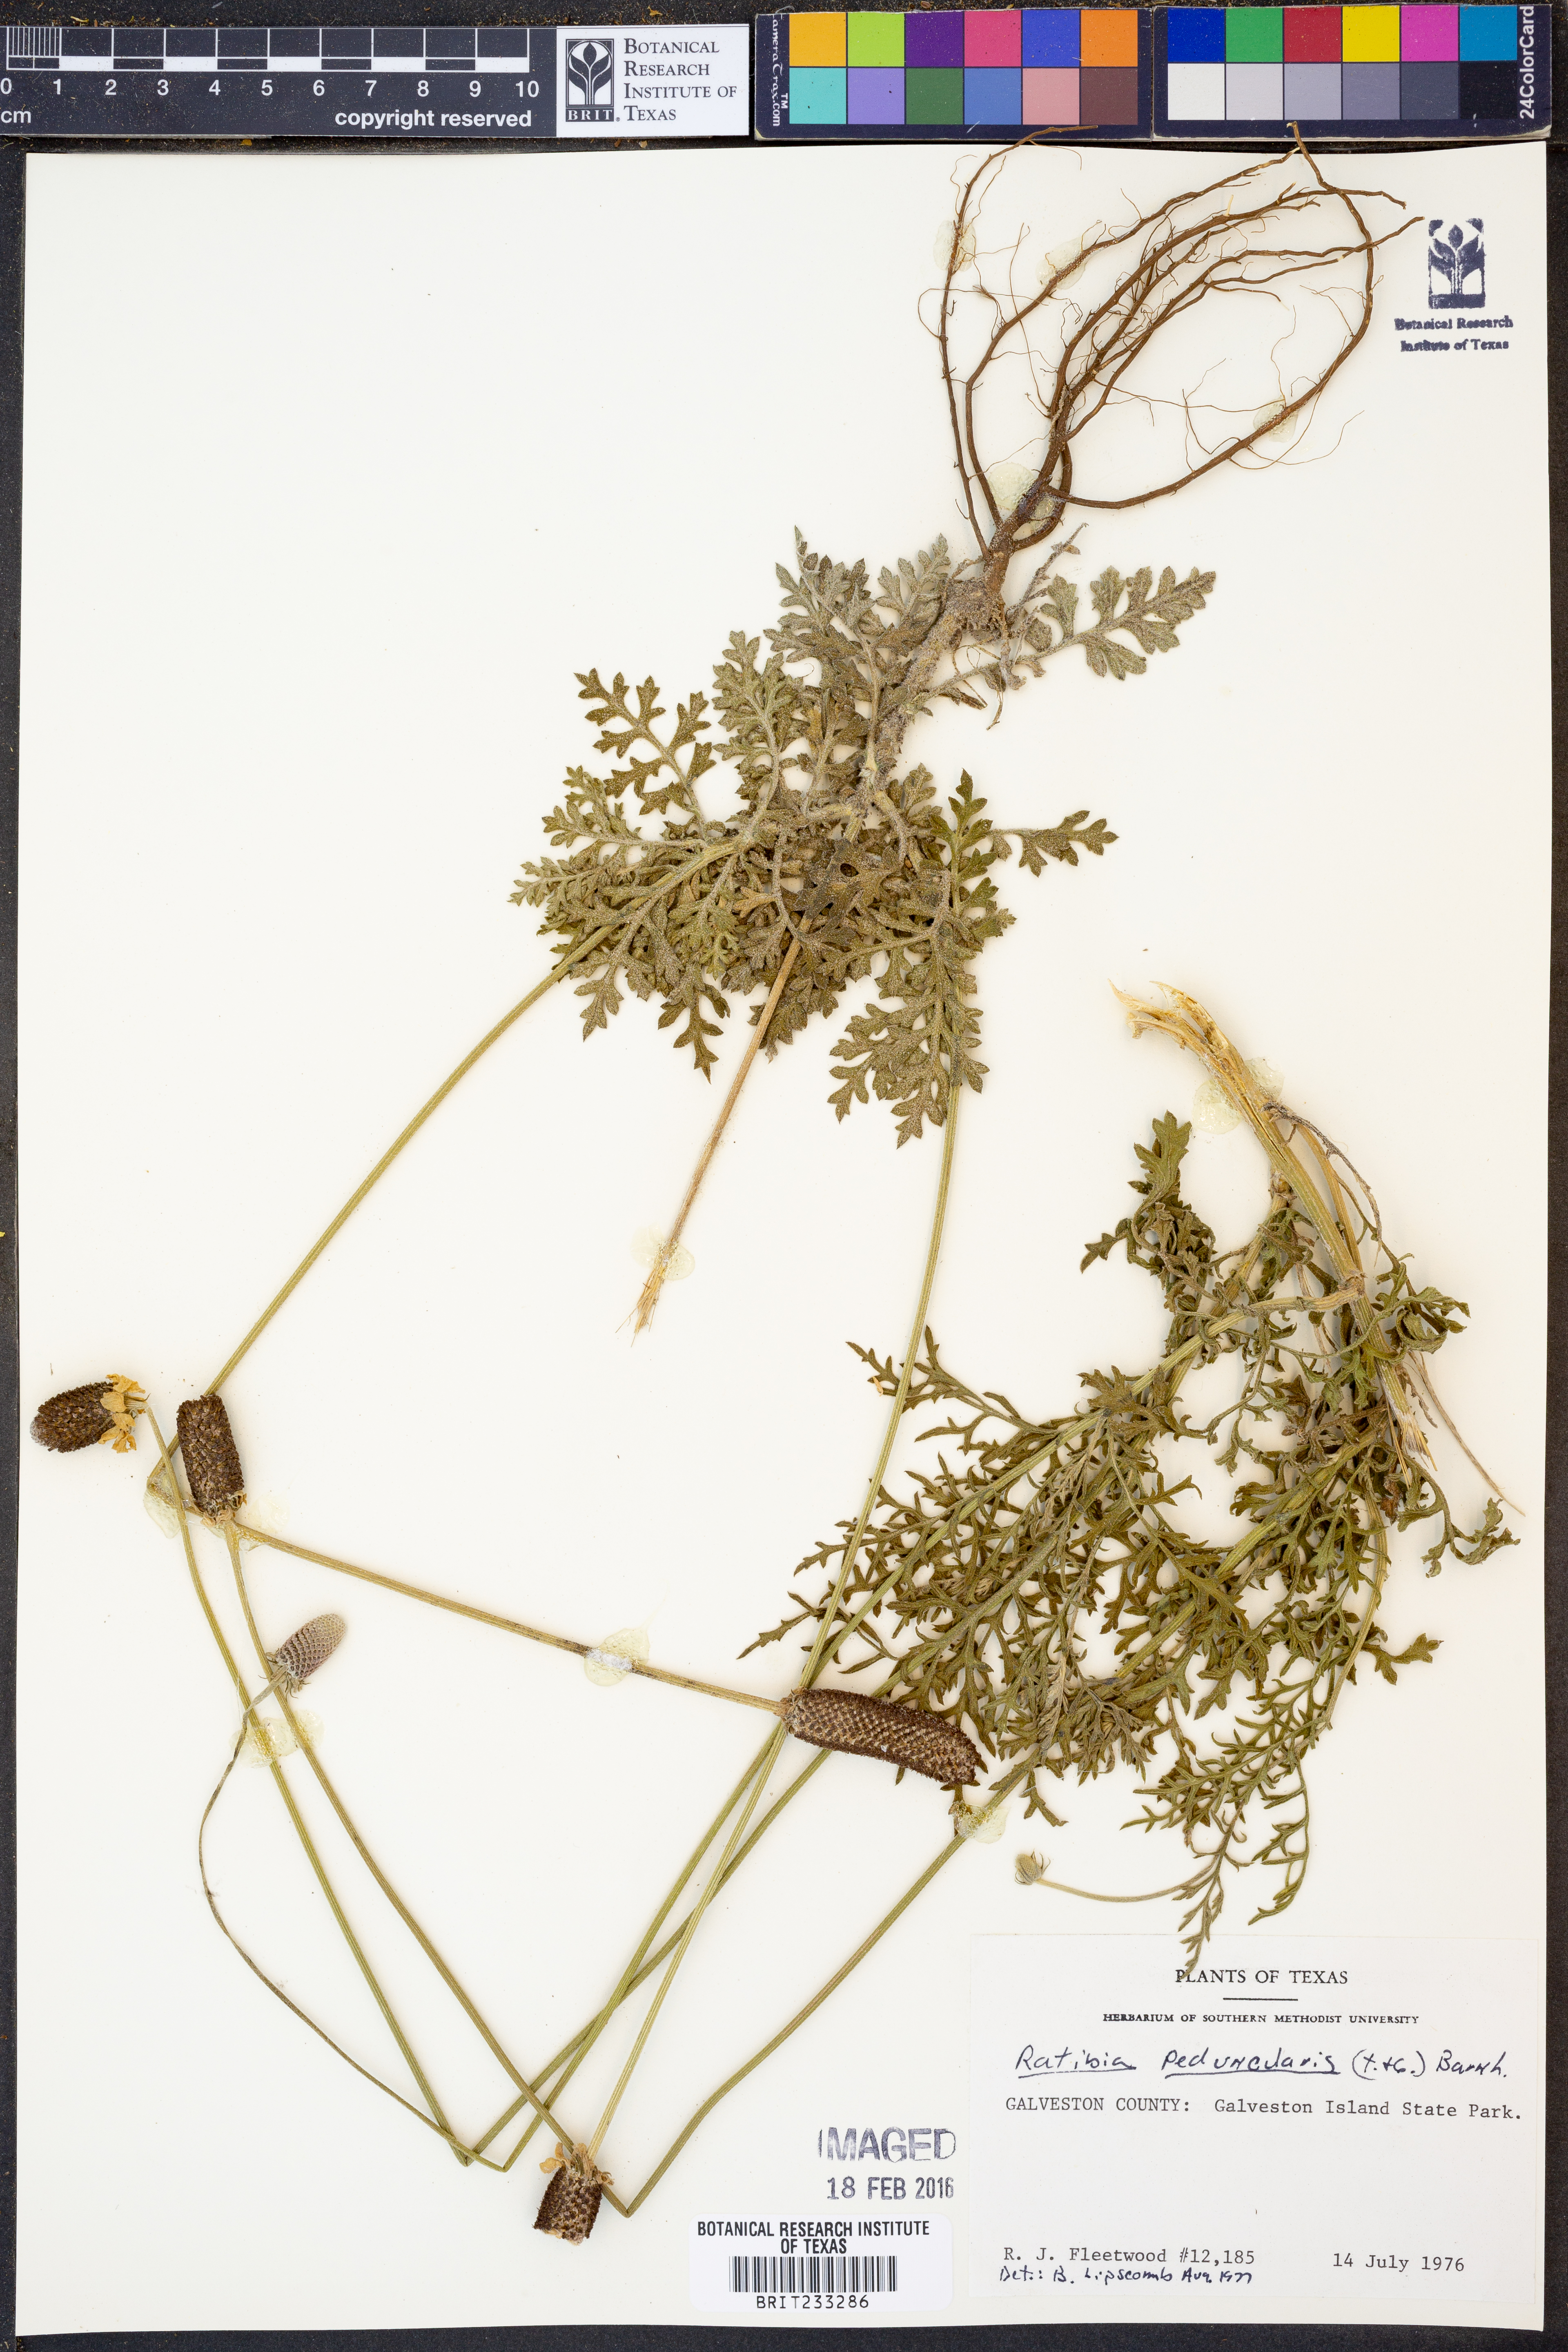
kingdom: Plantae
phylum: Tracheophyta
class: Magnoliopsida
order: Asterales
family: Asteraceae
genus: Ratibida
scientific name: Ratibida peduncularis
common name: Naked prairie-coneflower
